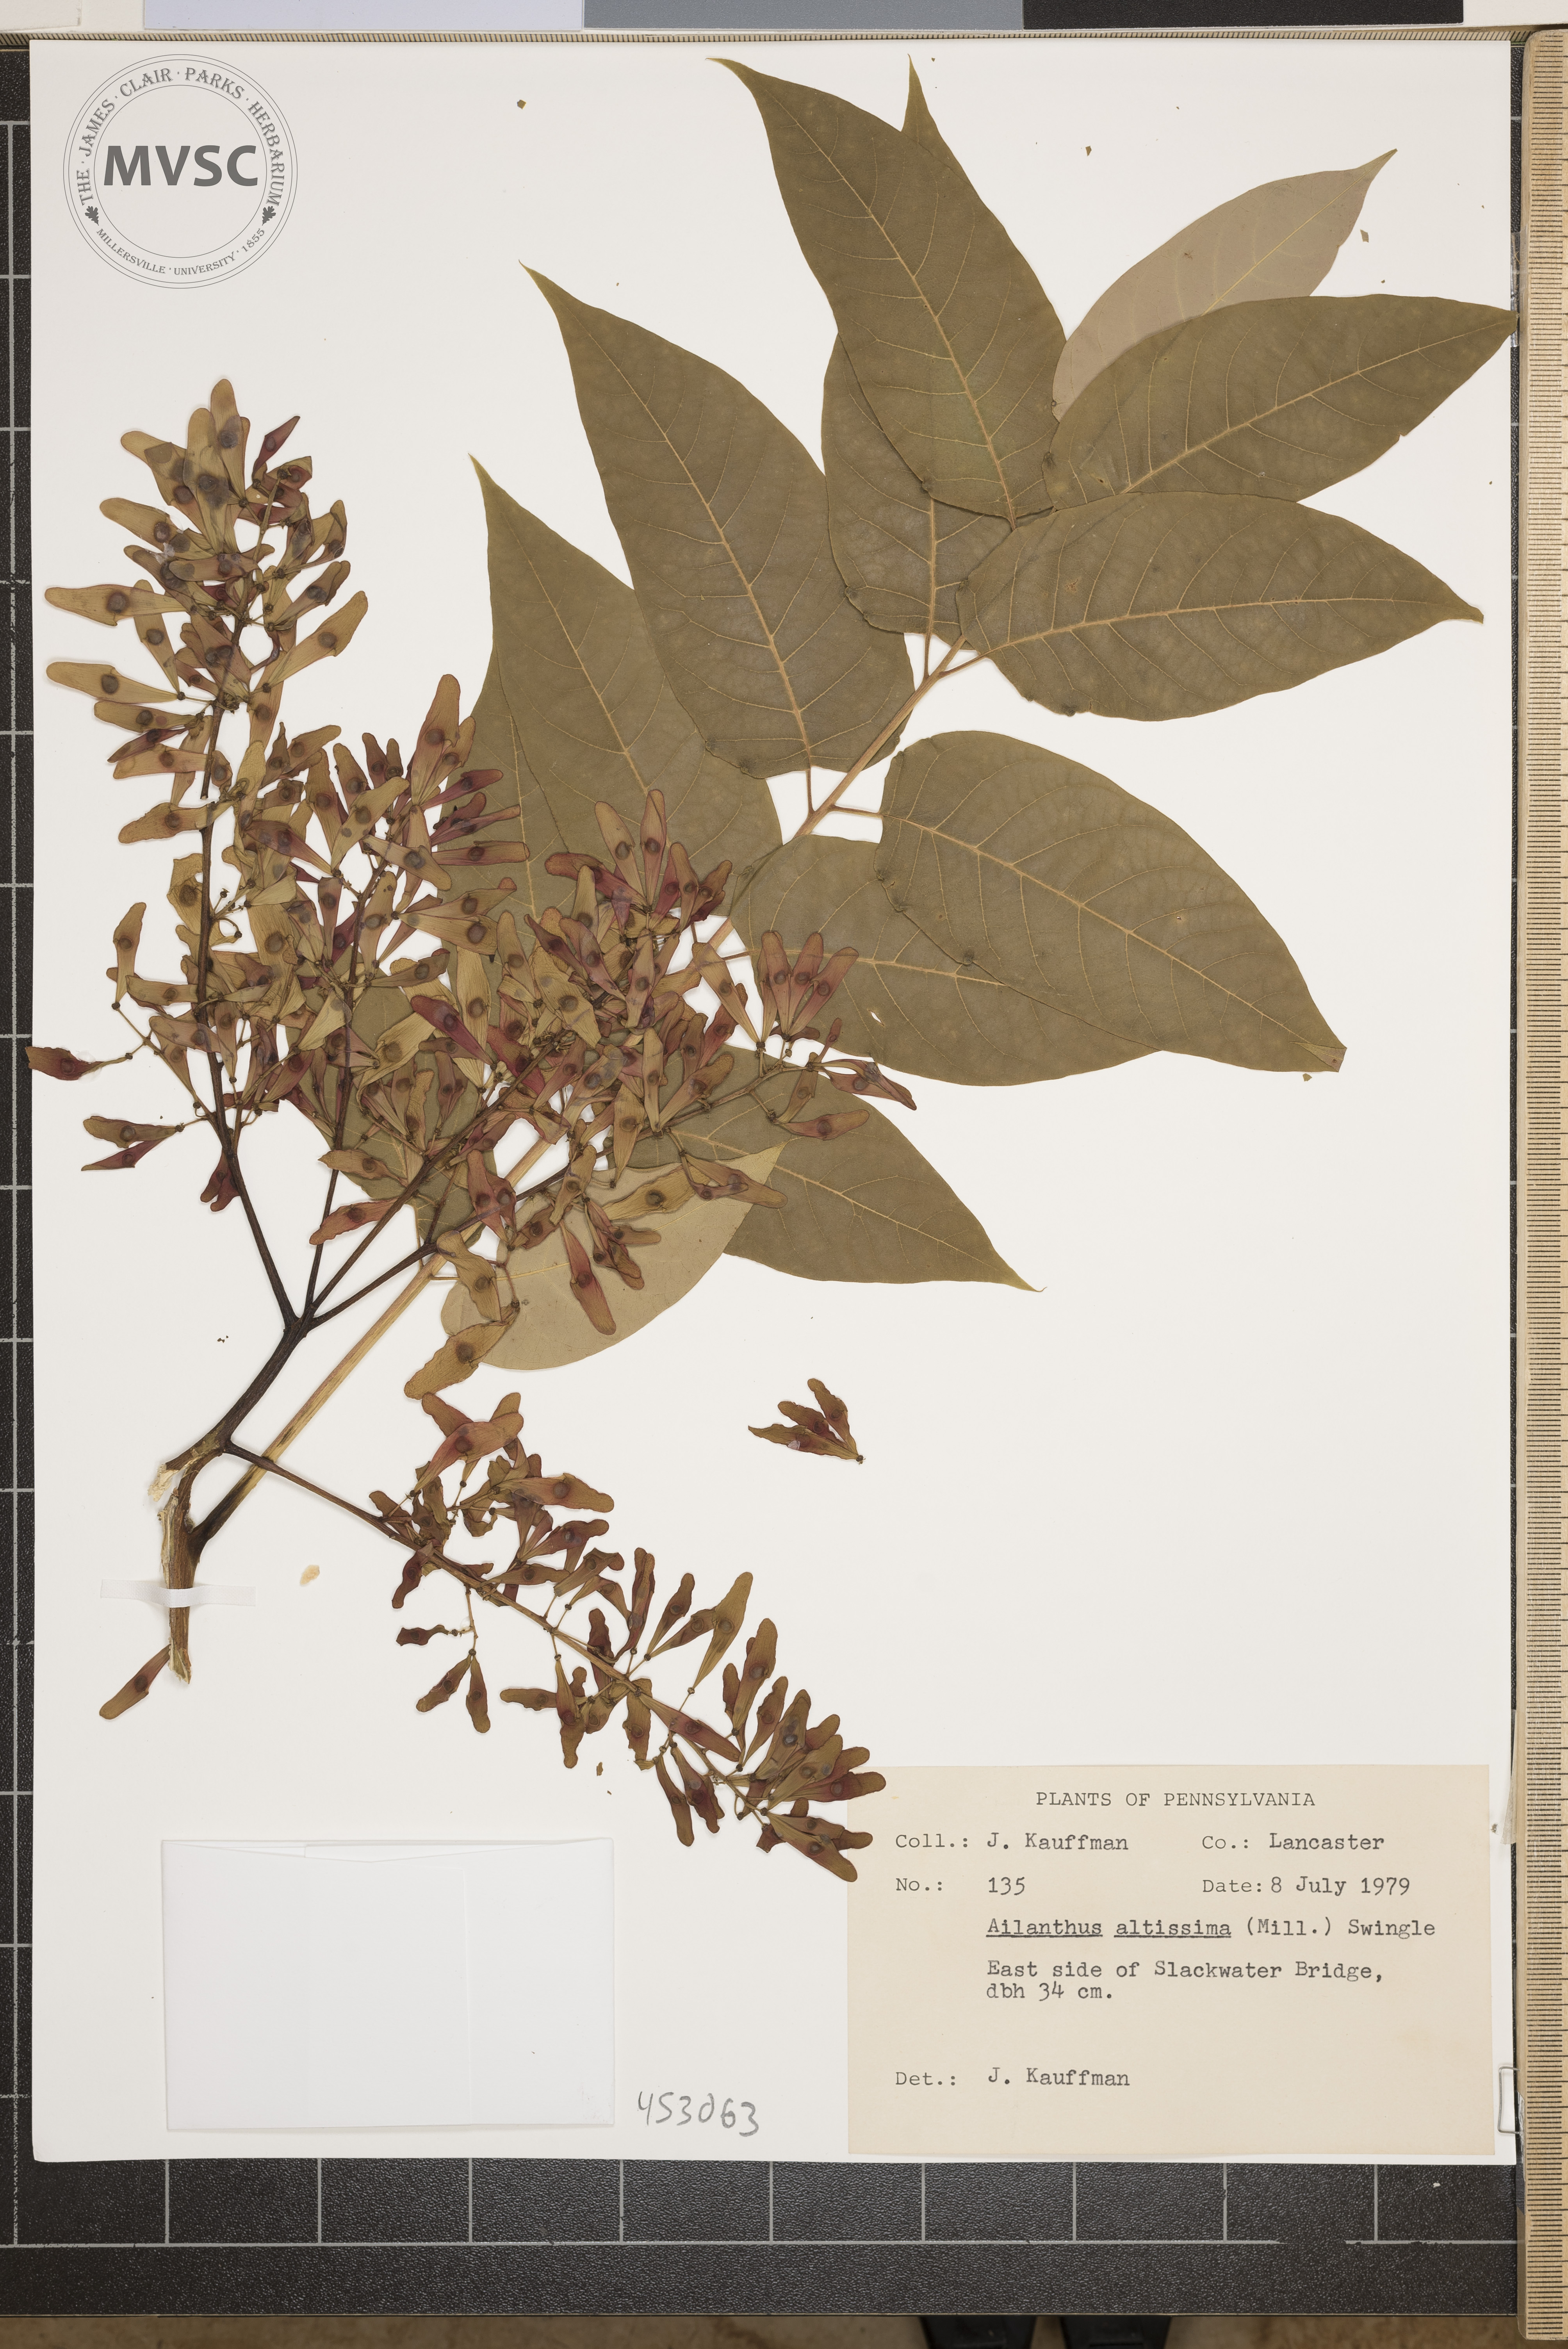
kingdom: Plantae
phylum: Tracheophyta
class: Magnoliopsida
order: Sapindales
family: Simaroubaceae
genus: Ailanthus
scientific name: Ailanthus altissima
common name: Tree-of-heaven
